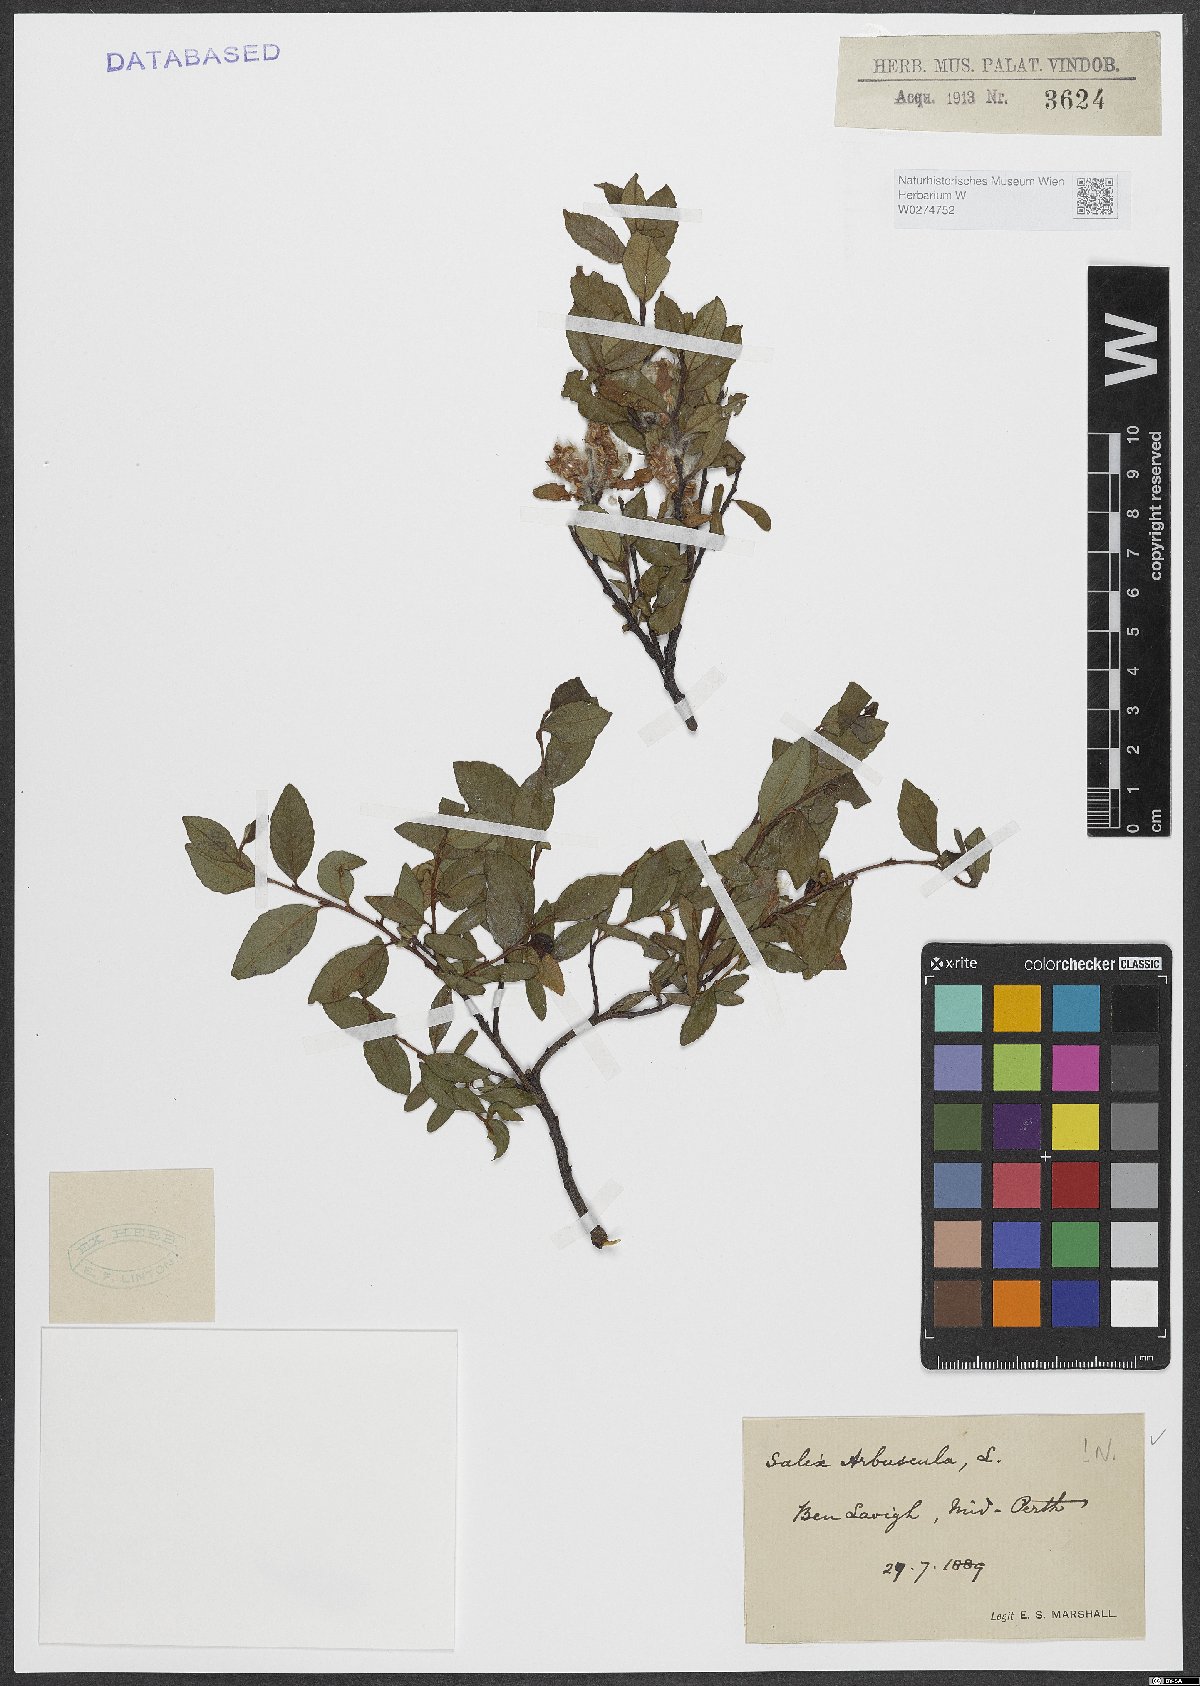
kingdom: Plantae
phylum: Tracheophyta
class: Magnoliopsida
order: Malpighiales
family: Salicaceae
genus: Salix
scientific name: Salix arbuscula
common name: Mountain willow
